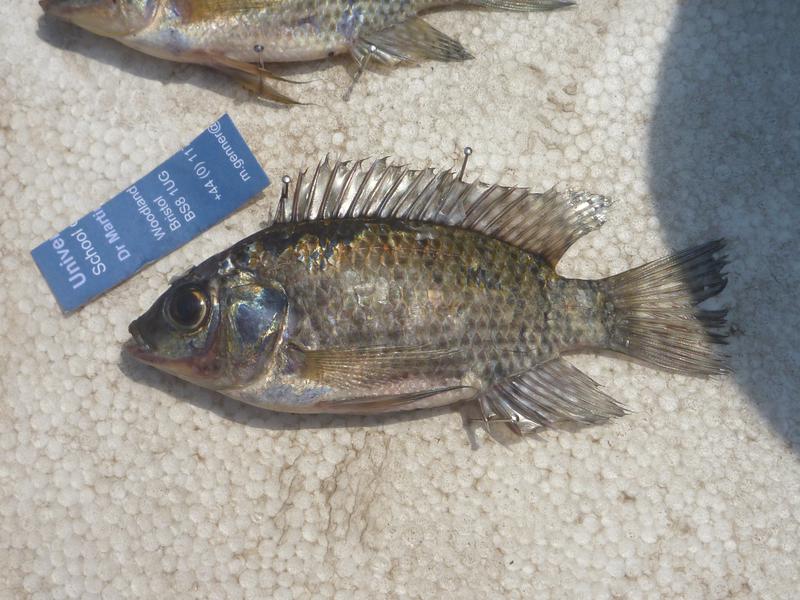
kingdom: Animalia
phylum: Chordata
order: Perciformes
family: Cichlidae
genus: Oreochromis
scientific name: Oreochromis leucostictus
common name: Blue spotted tilapia
